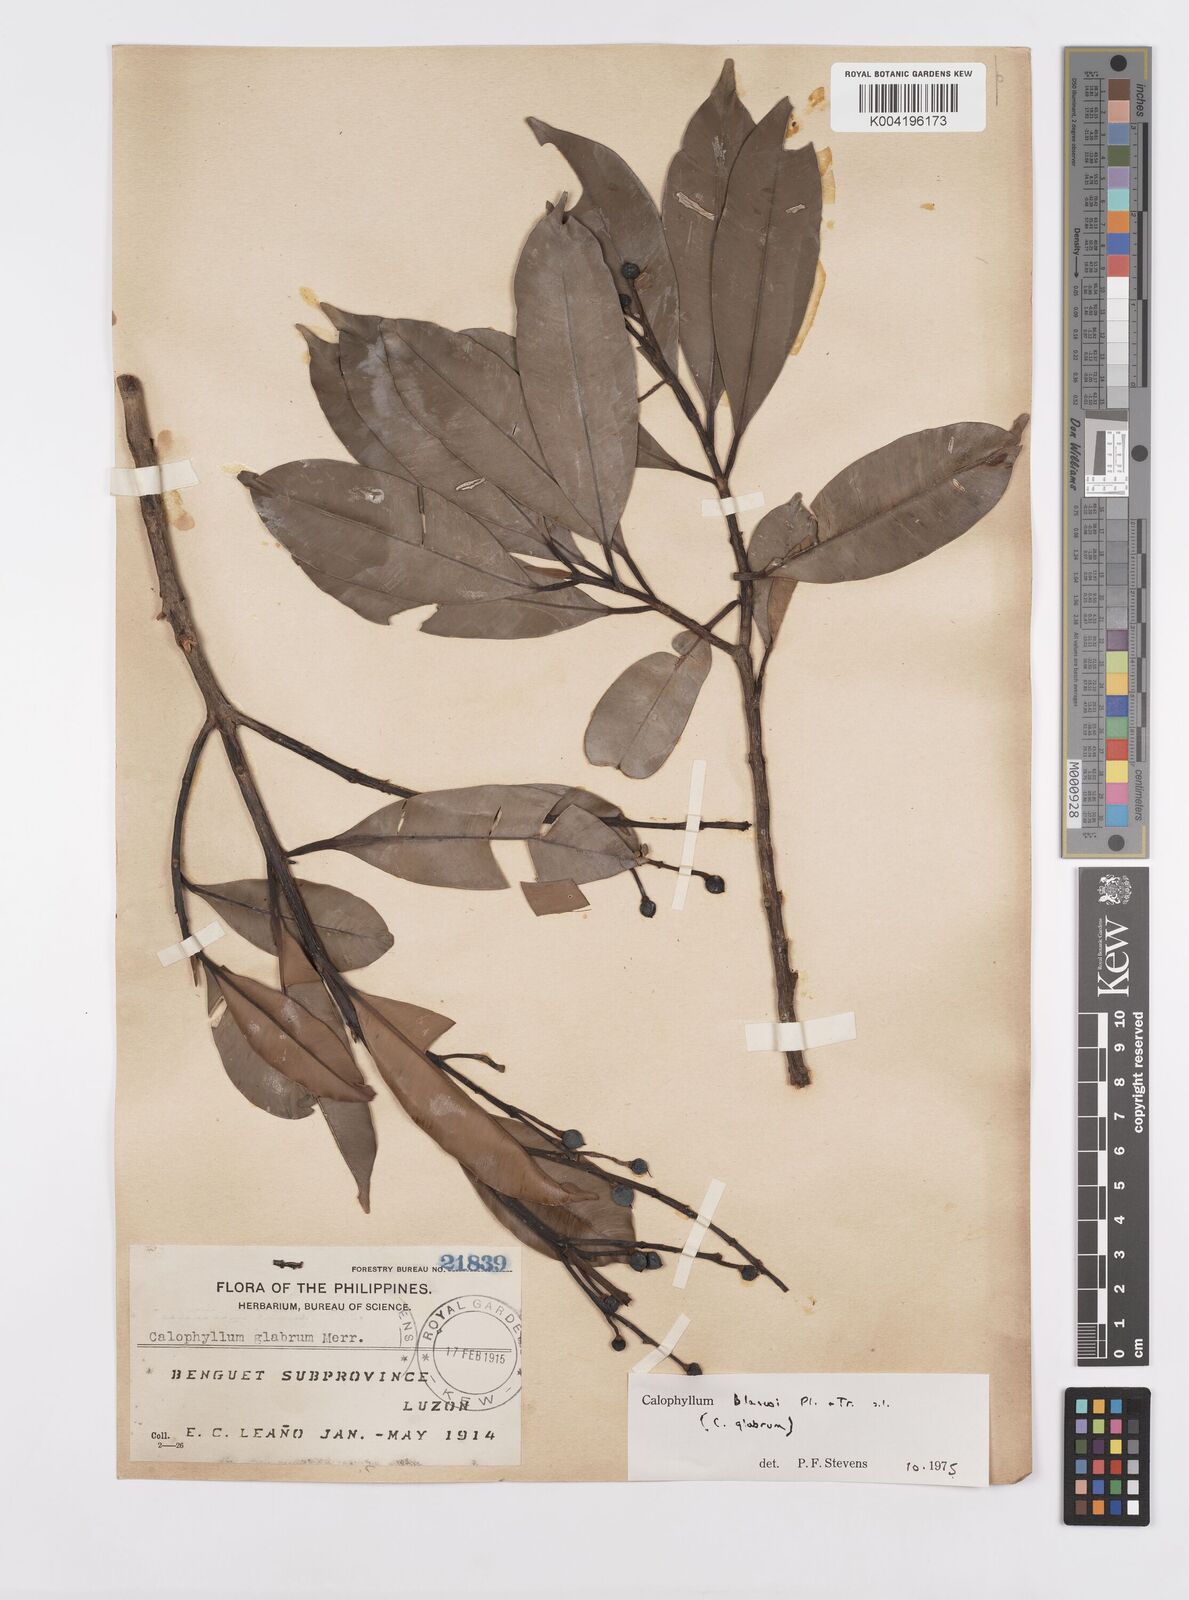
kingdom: Plantae
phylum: Tracheophyta
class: Magnoliopsida
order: Malpighiales
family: Calophyllaceae
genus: Calophyllum
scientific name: Calophyllum blancoi
